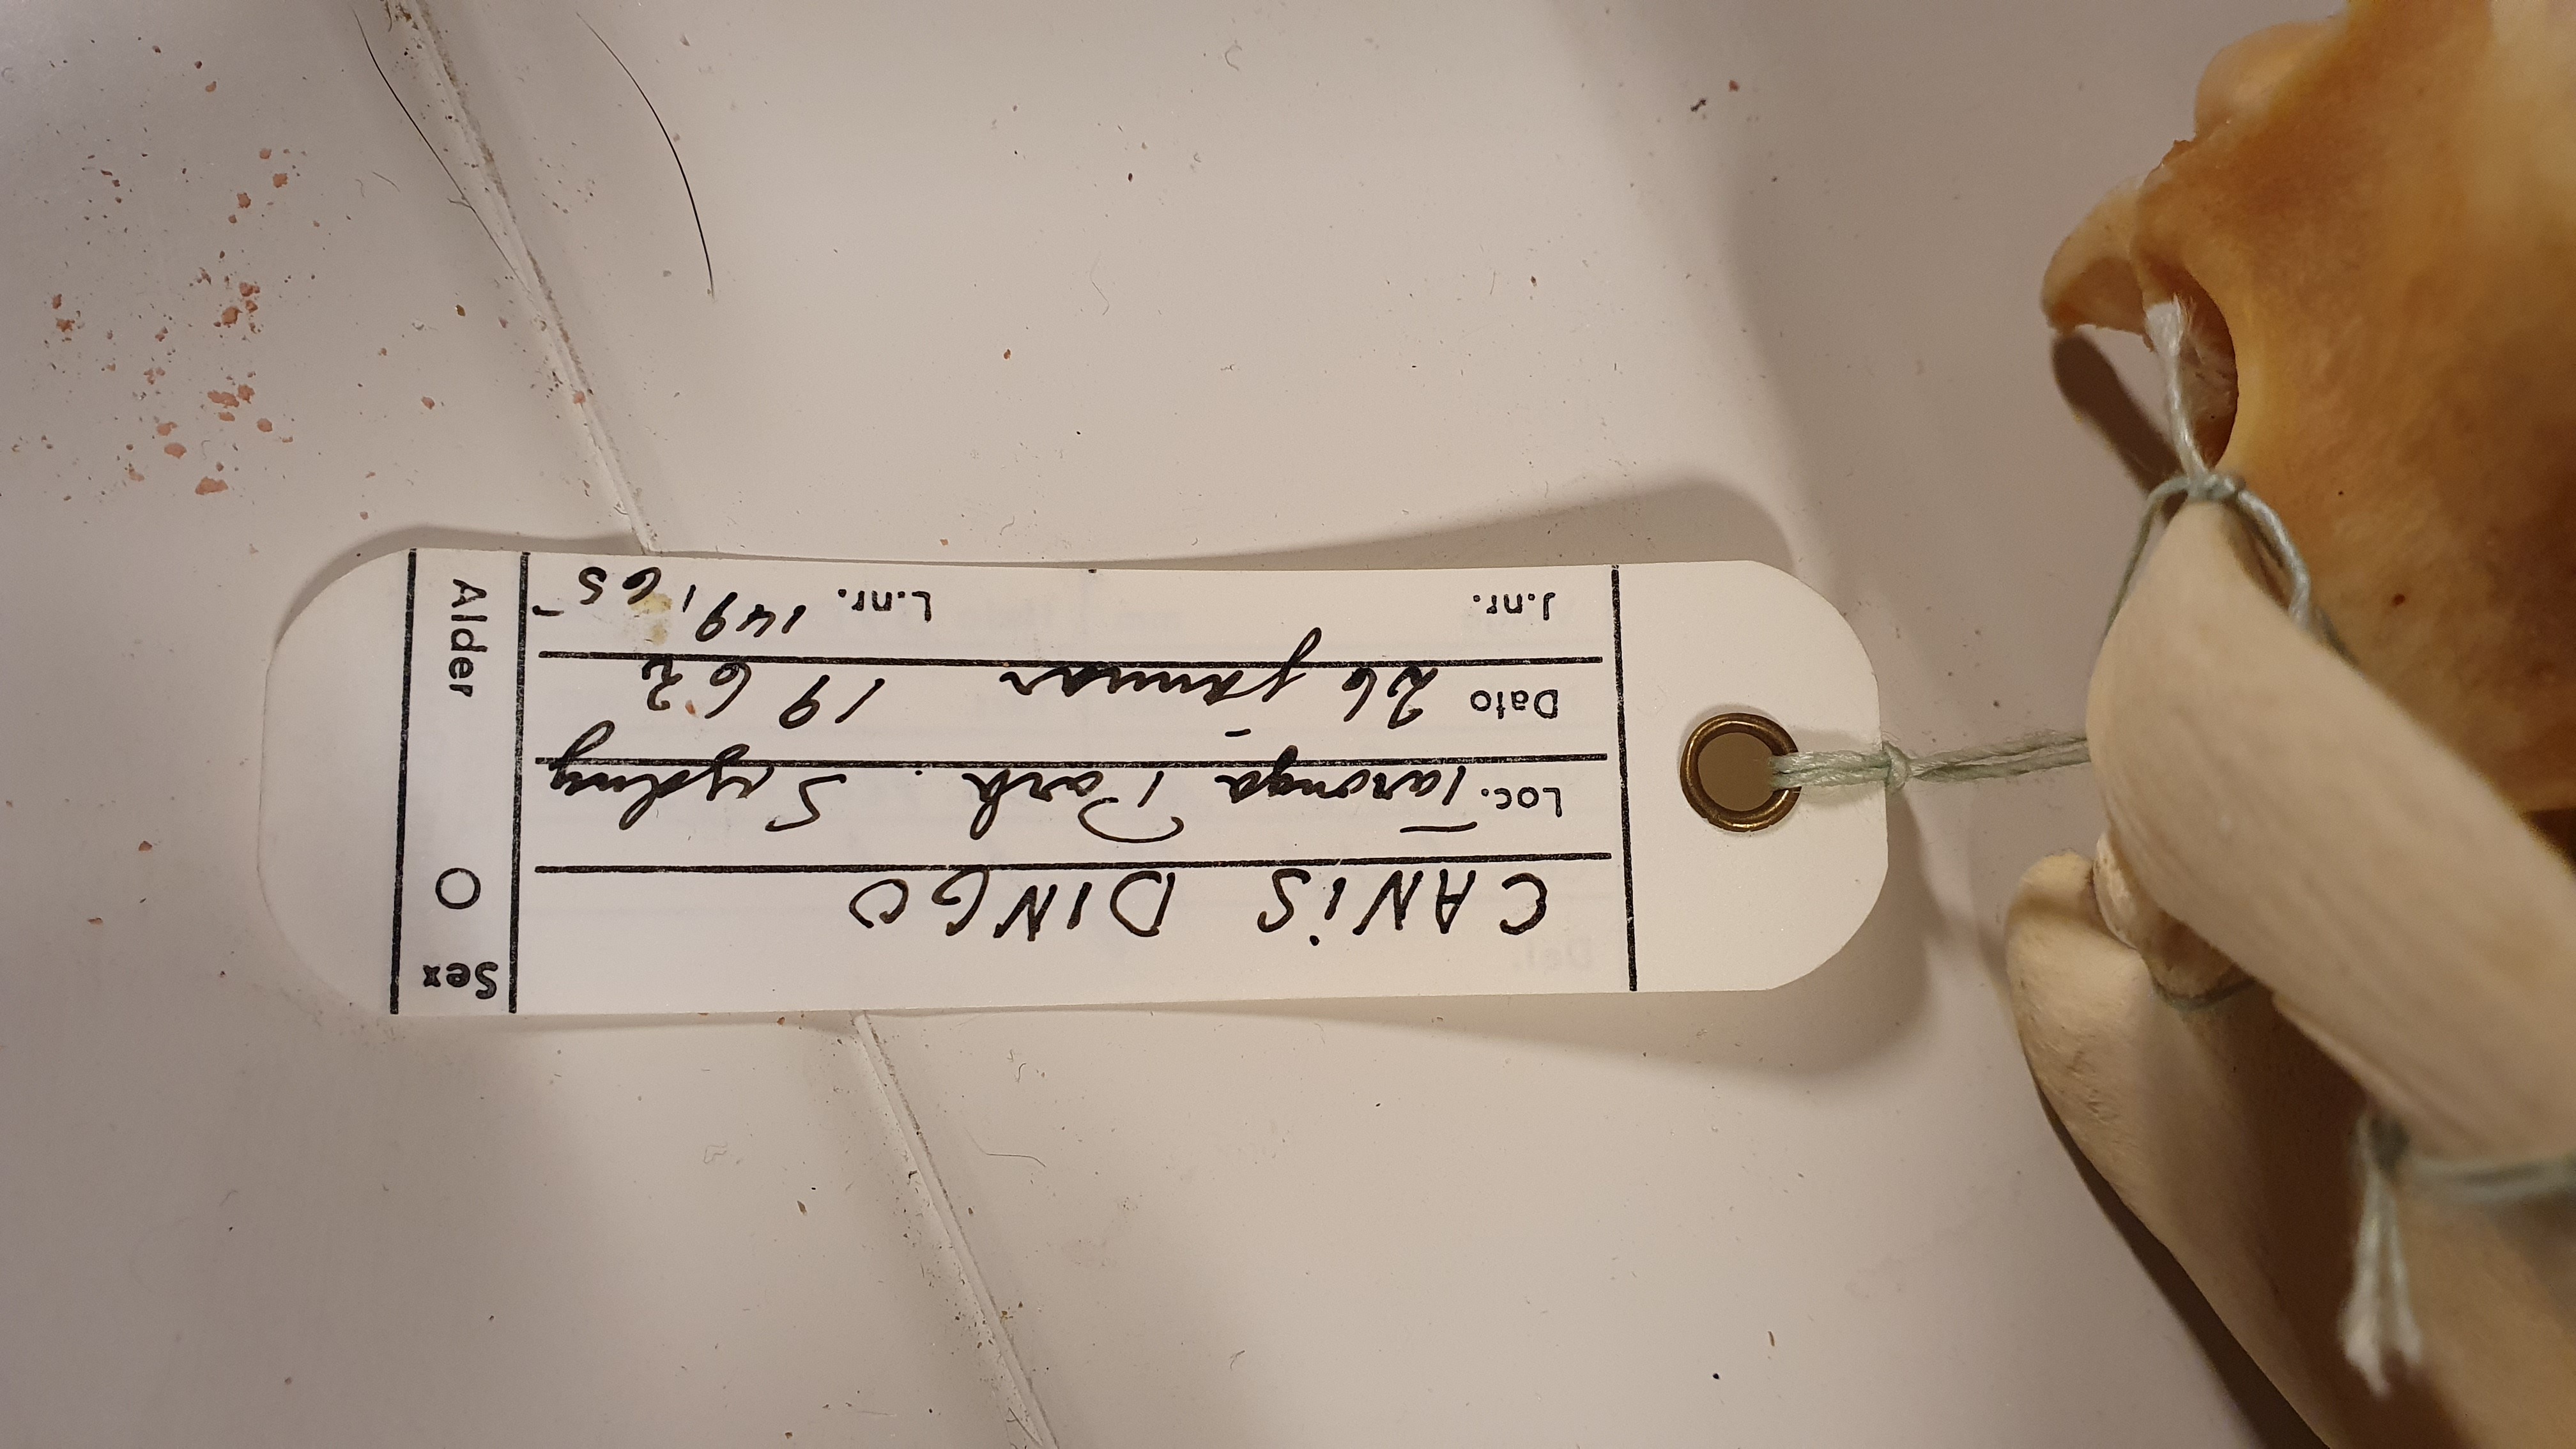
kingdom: Animalia
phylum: Chordata
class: Mammalia
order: Carnivora
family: Canidae
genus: Canis
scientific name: Canis lupus
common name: Gray wolf
